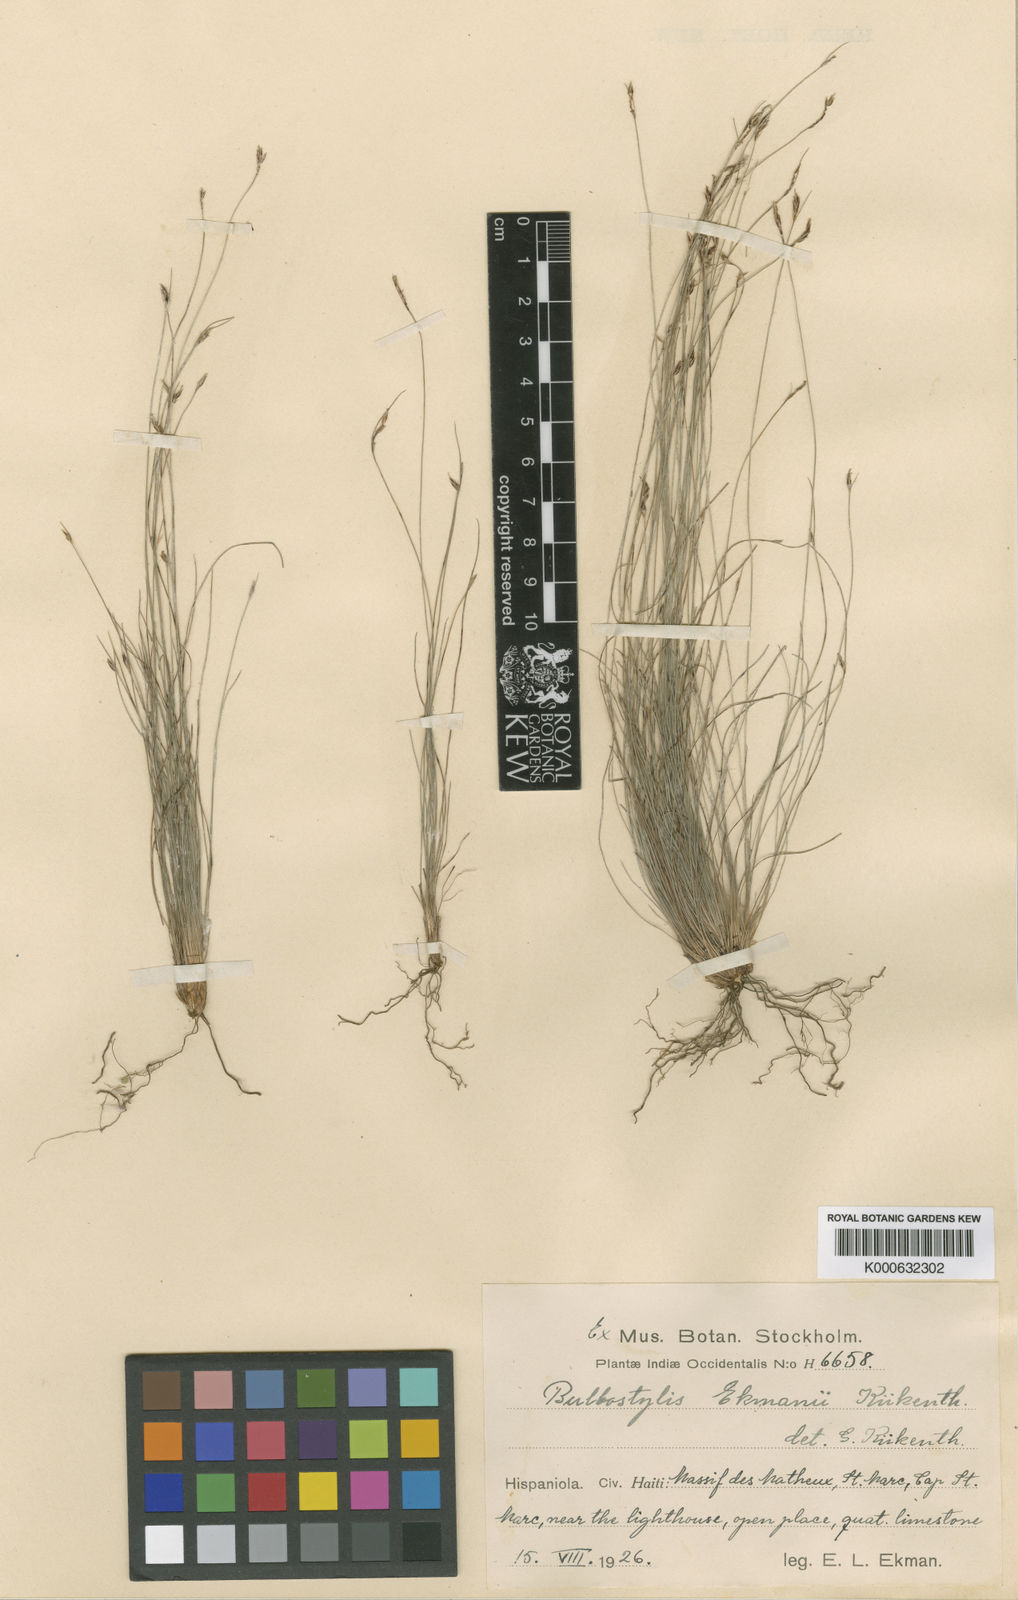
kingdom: Plantae
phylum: Tracheophyta
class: Liliopsida
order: Poales
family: Cyperaceae
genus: Bulbostylis
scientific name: Bulbostylis
